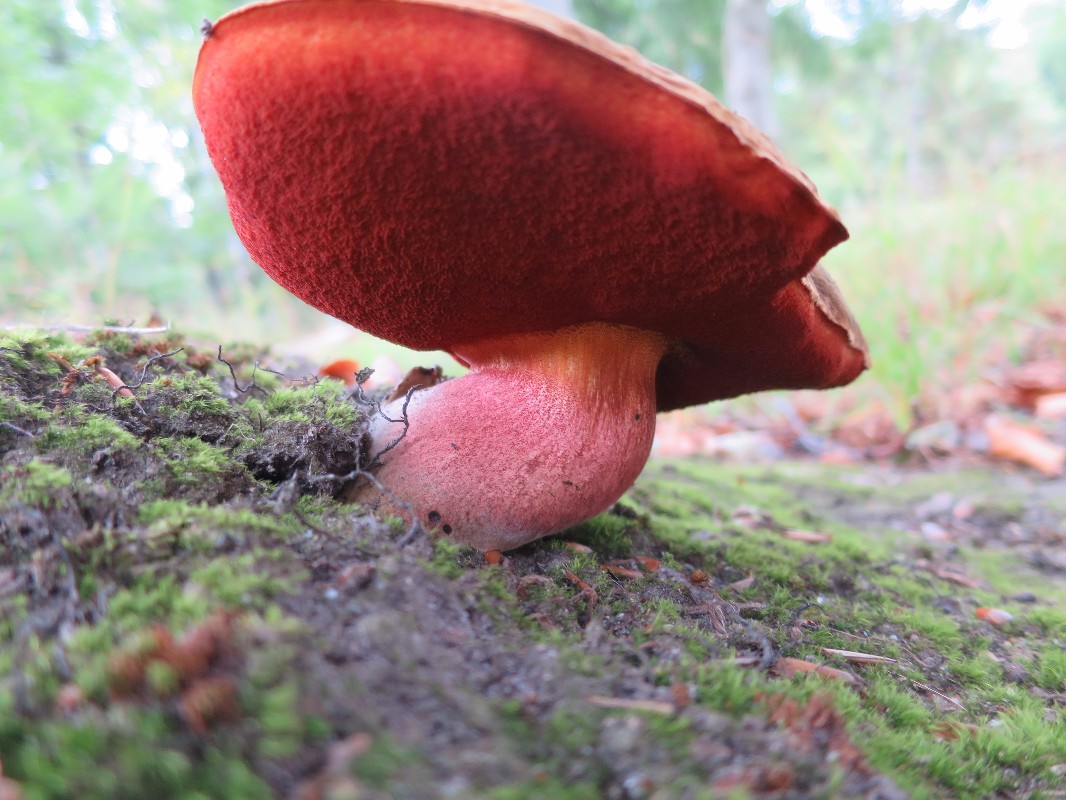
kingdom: Fungi
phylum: Basidiomycota
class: Agaricomycetes
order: Boletales
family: Boletaceae
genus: Neoboletus
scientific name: Neoboletus erythropus
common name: punktstokket indigorørhat
